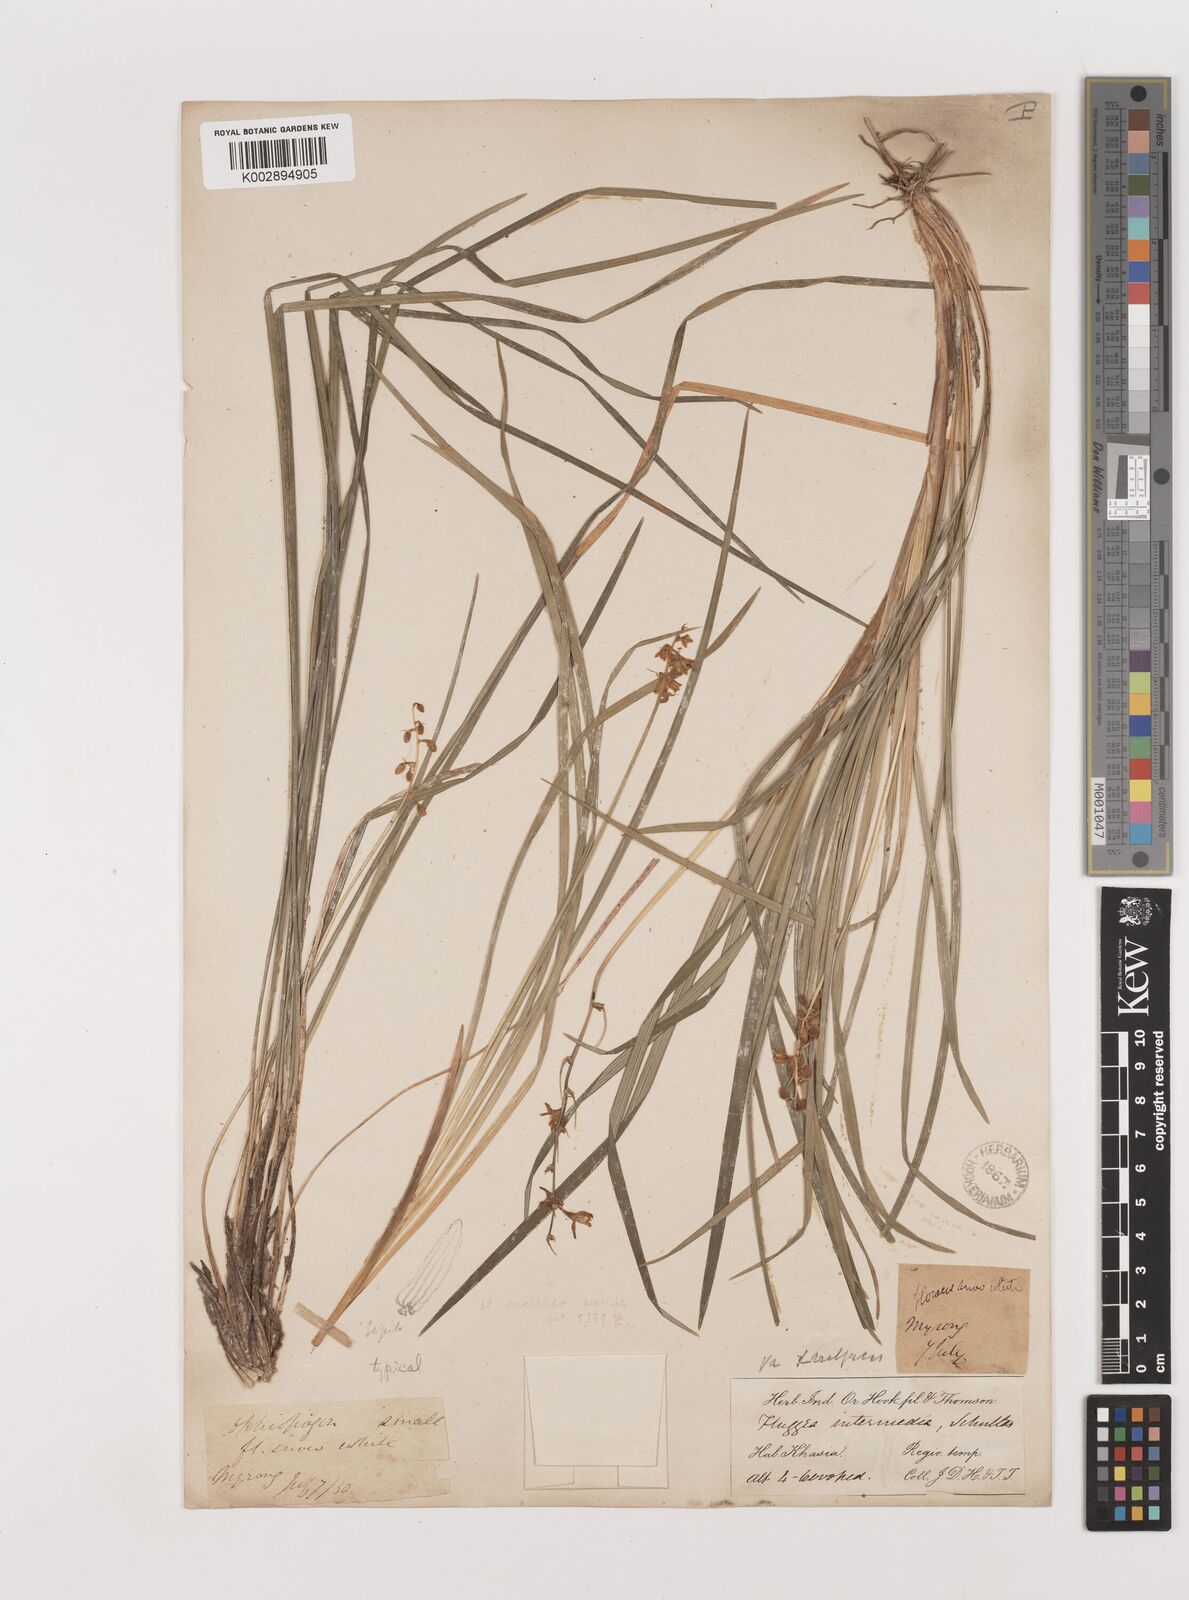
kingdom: Plantae
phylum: Tracheophyta
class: Liliopsida
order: Asparagales
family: Asparagaceae
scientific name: Asparagaceae
